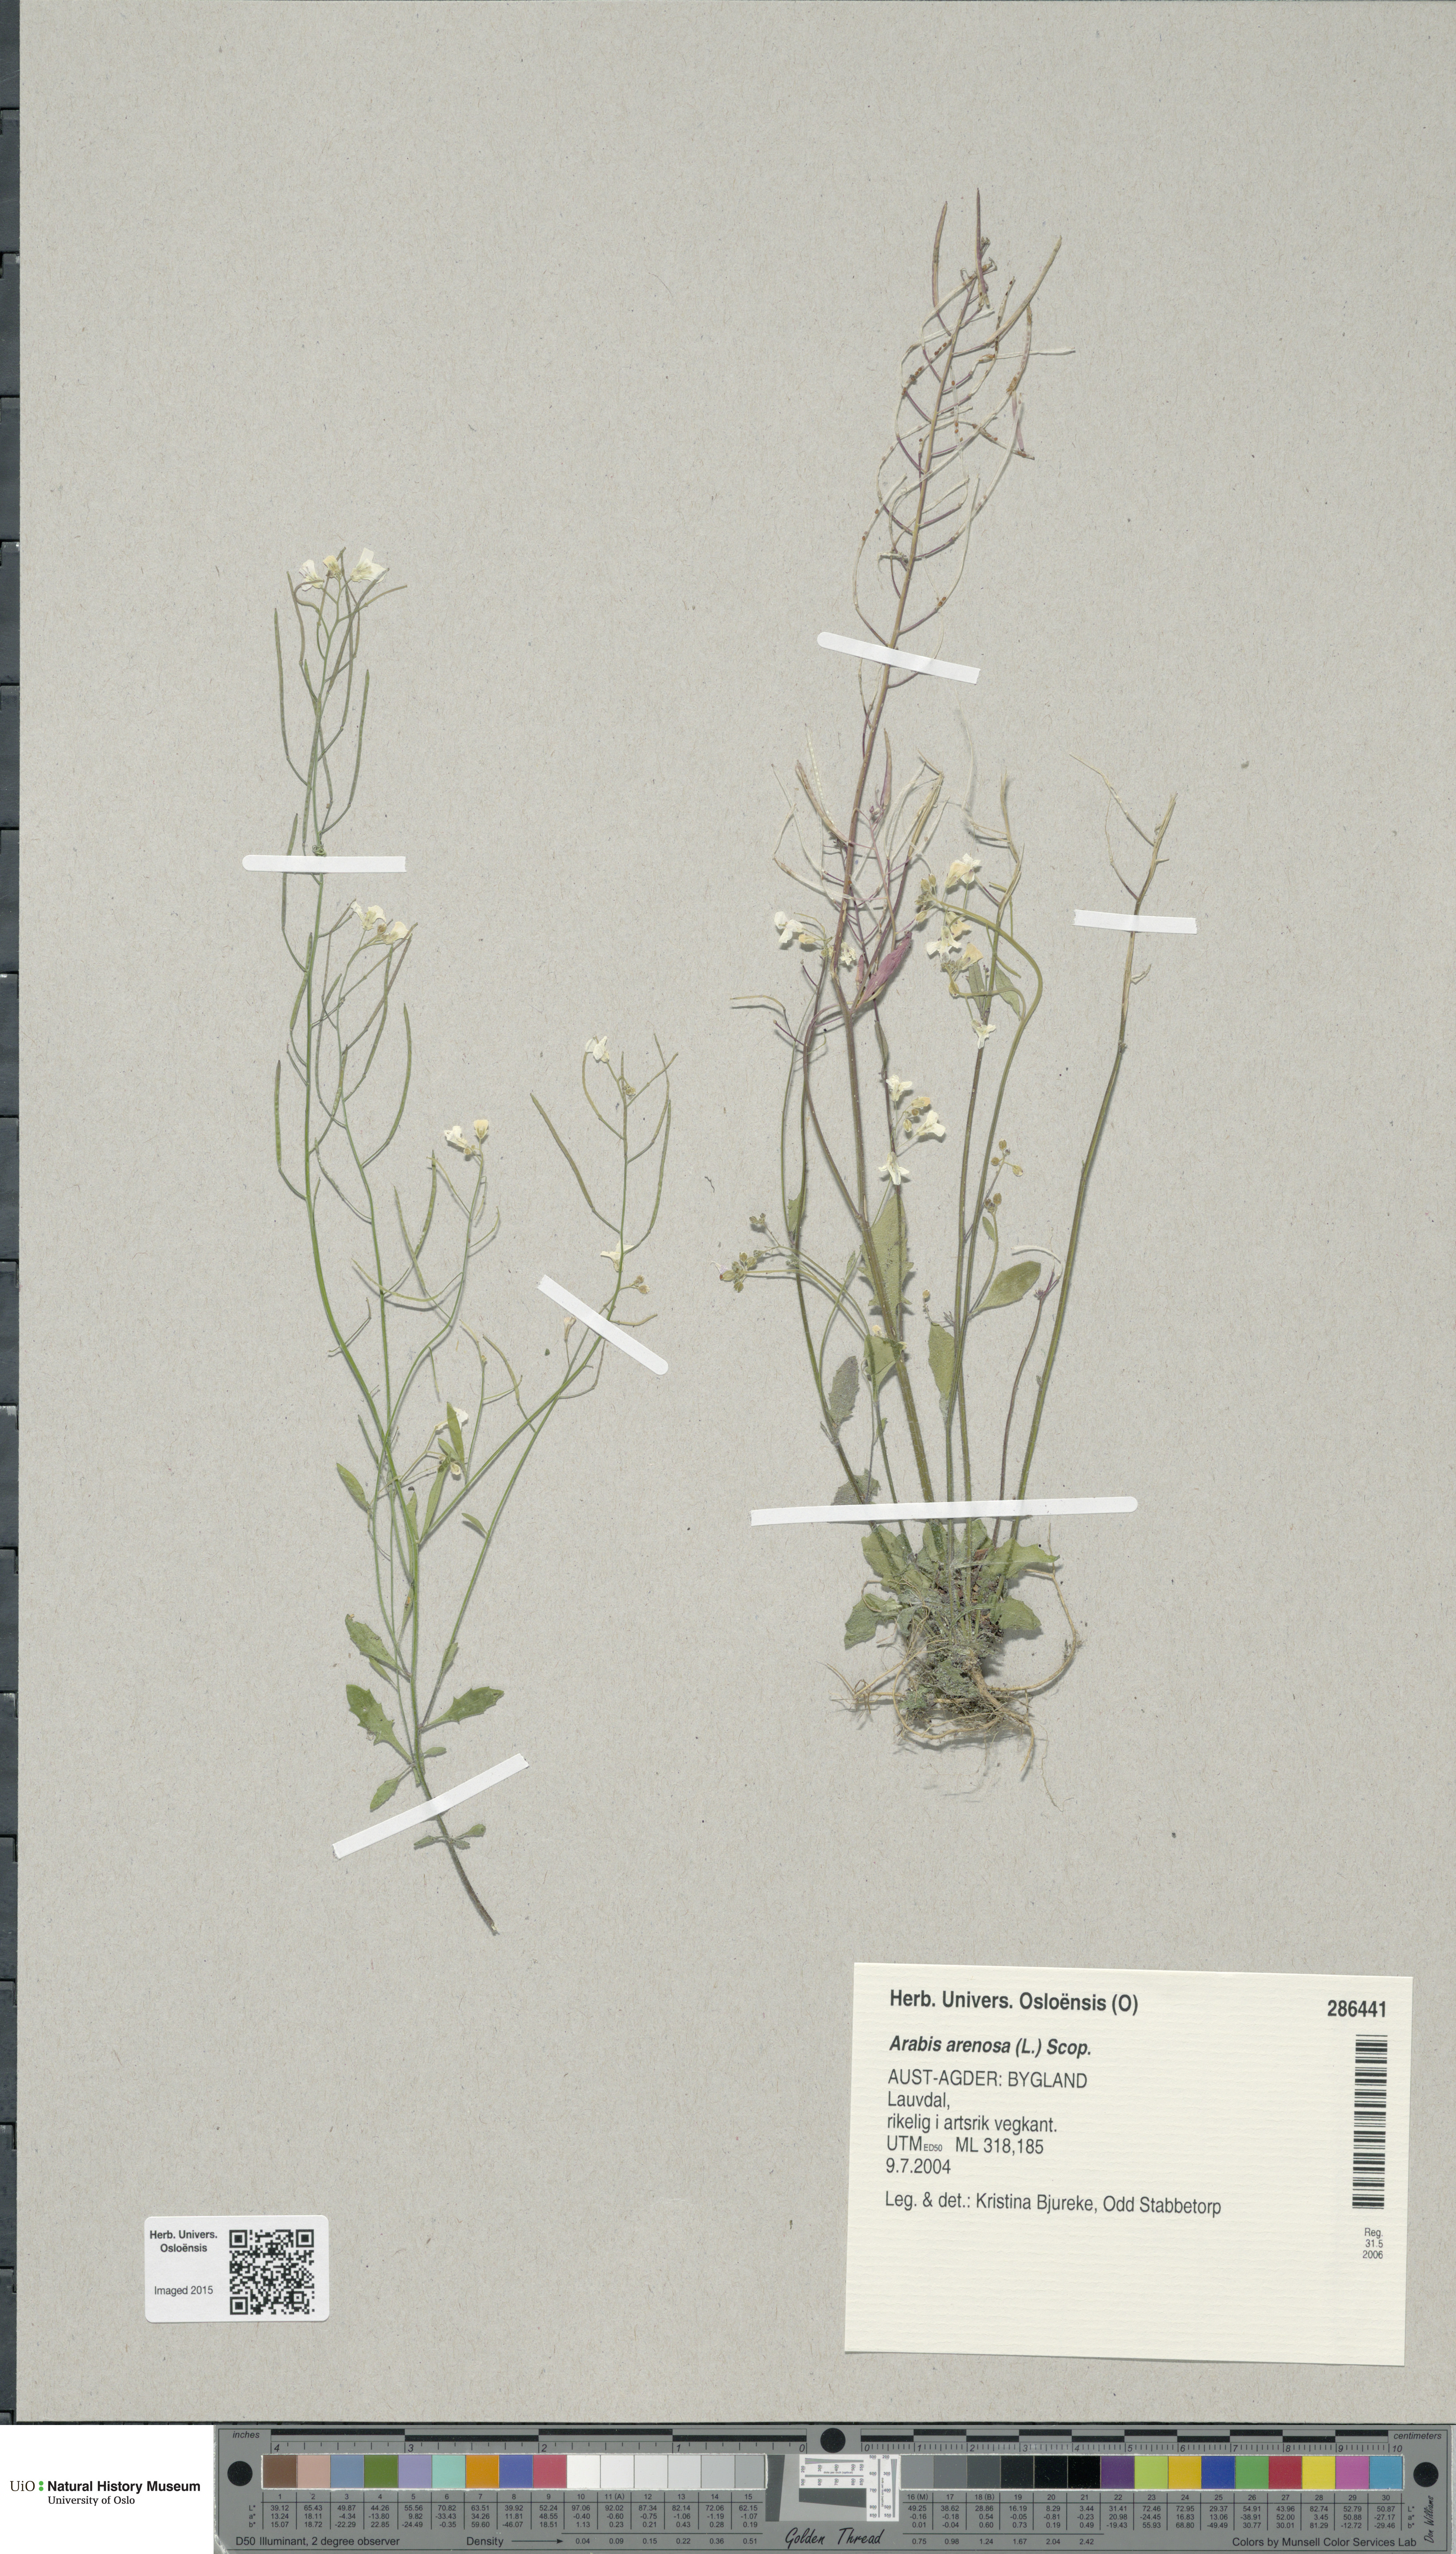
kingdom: Plantae
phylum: Tracheophyta
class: Magnoliopsida
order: Brassicales
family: Brassicaceae
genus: Arabidopsis
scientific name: Arabidopsis arenosa
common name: Sand rock-cress
